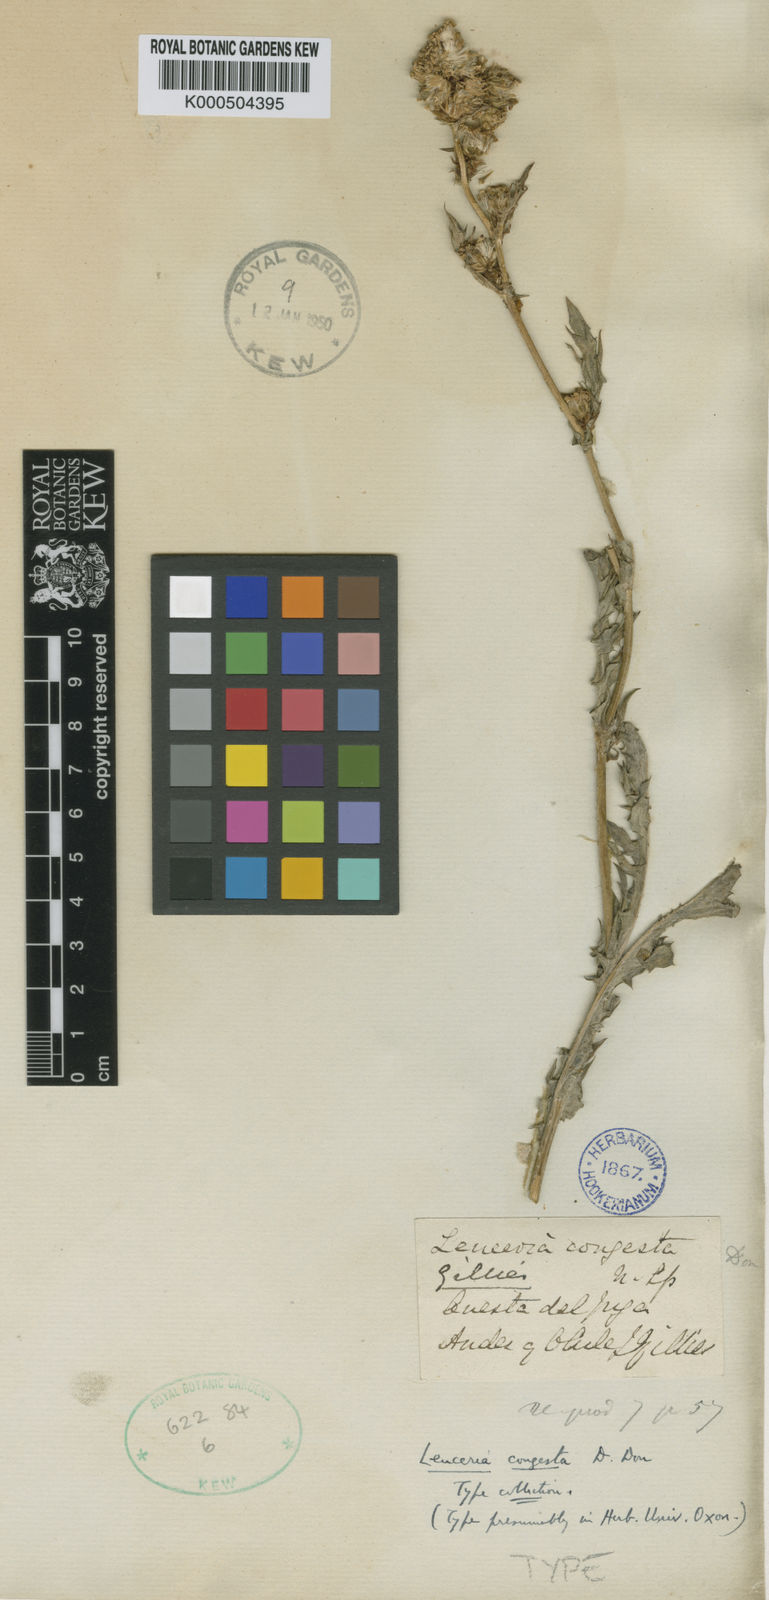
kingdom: Plantae
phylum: Tracheophyta
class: Magnoliopsida
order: Asterales
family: Asteraceae
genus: Leucheria
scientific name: Leucheria congesta
